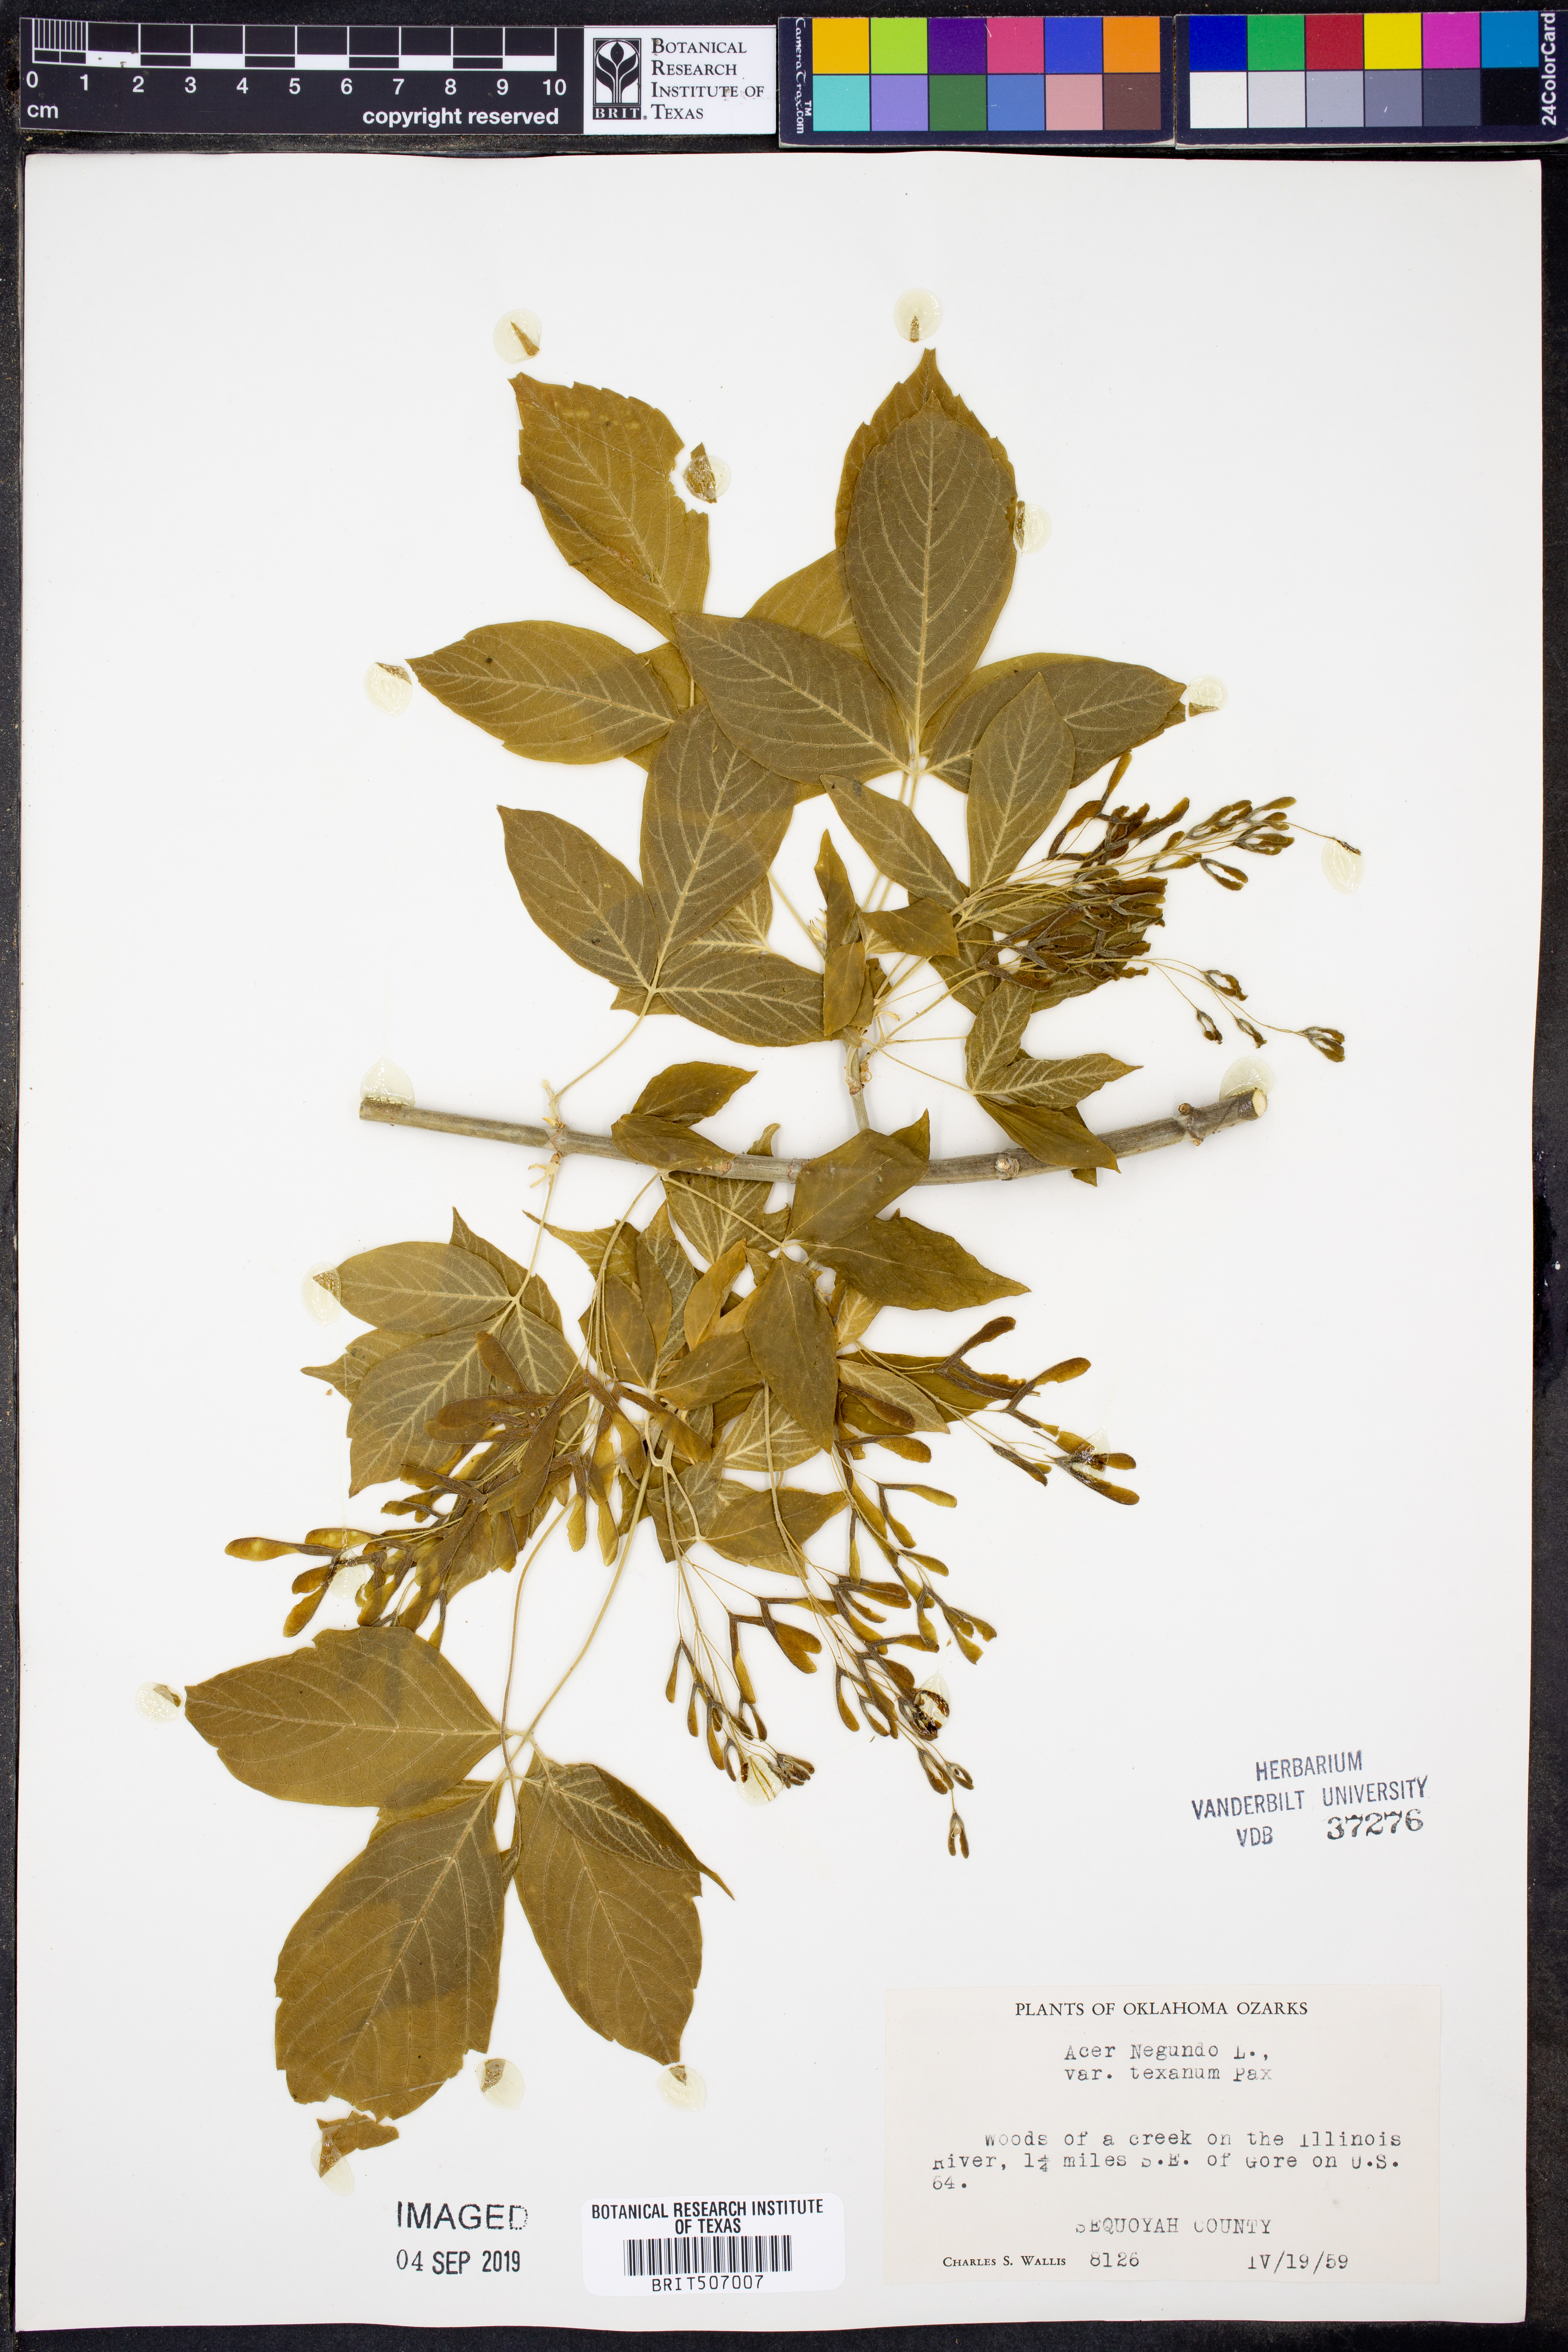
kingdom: Plantae
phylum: Tracheophyta
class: Magnoliopsida
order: Sapindales
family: Sapindaceae
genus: Acer
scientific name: Acer negundo
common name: Ashleaf maple
